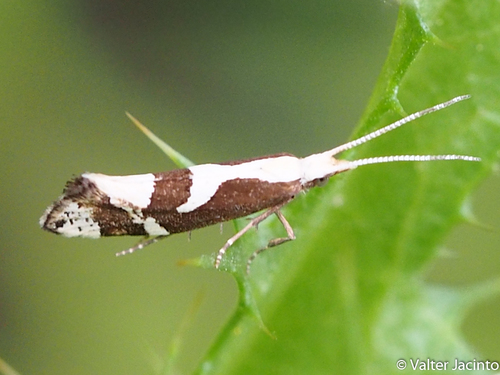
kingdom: Animalia
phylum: Arthropoda
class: Insecta
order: Lepidoptera
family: Plutellidae
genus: Eidophasia
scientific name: Eidophasia syenitella
